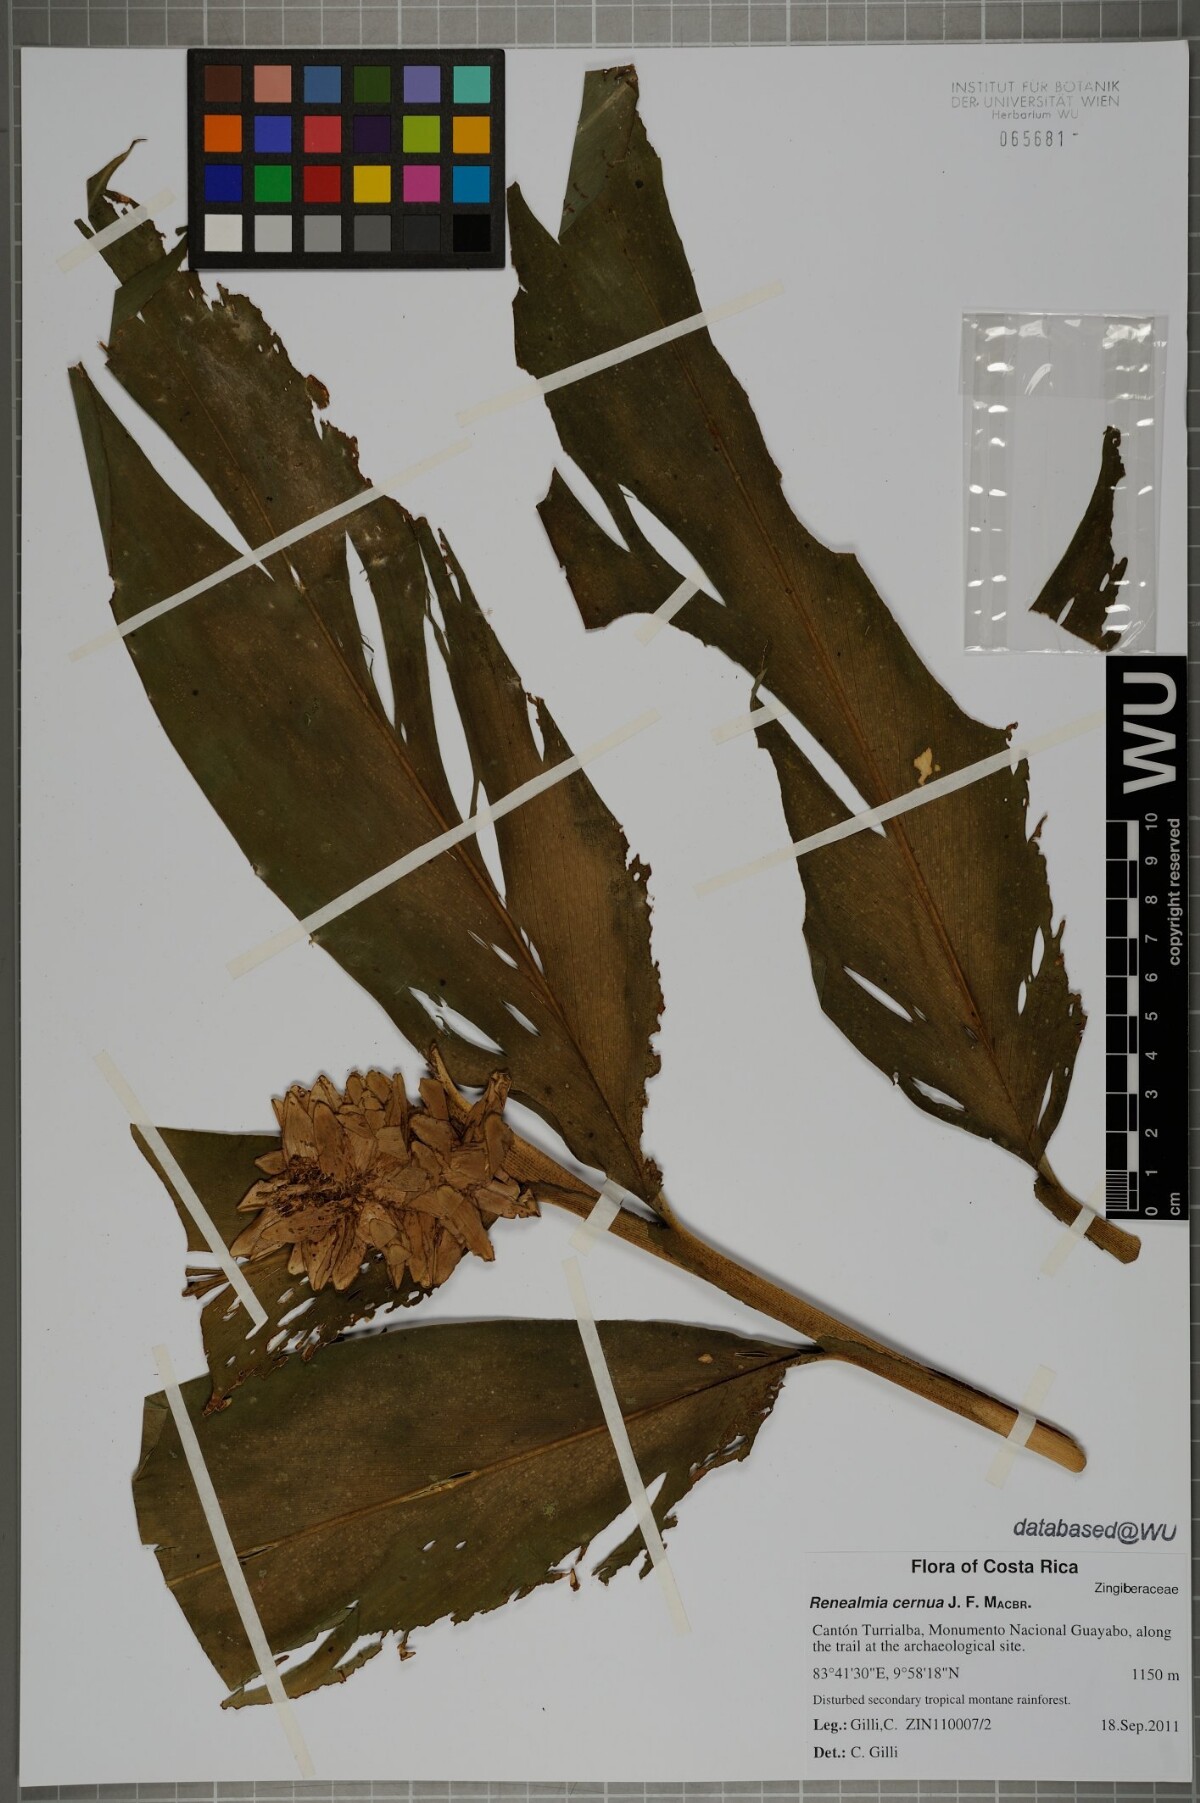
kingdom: Plantae
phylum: Tracheophyta
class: Liliopsida
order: Zingiberales
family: Zingiberaceae
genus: Renealmia
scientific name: Renealmia cernua
